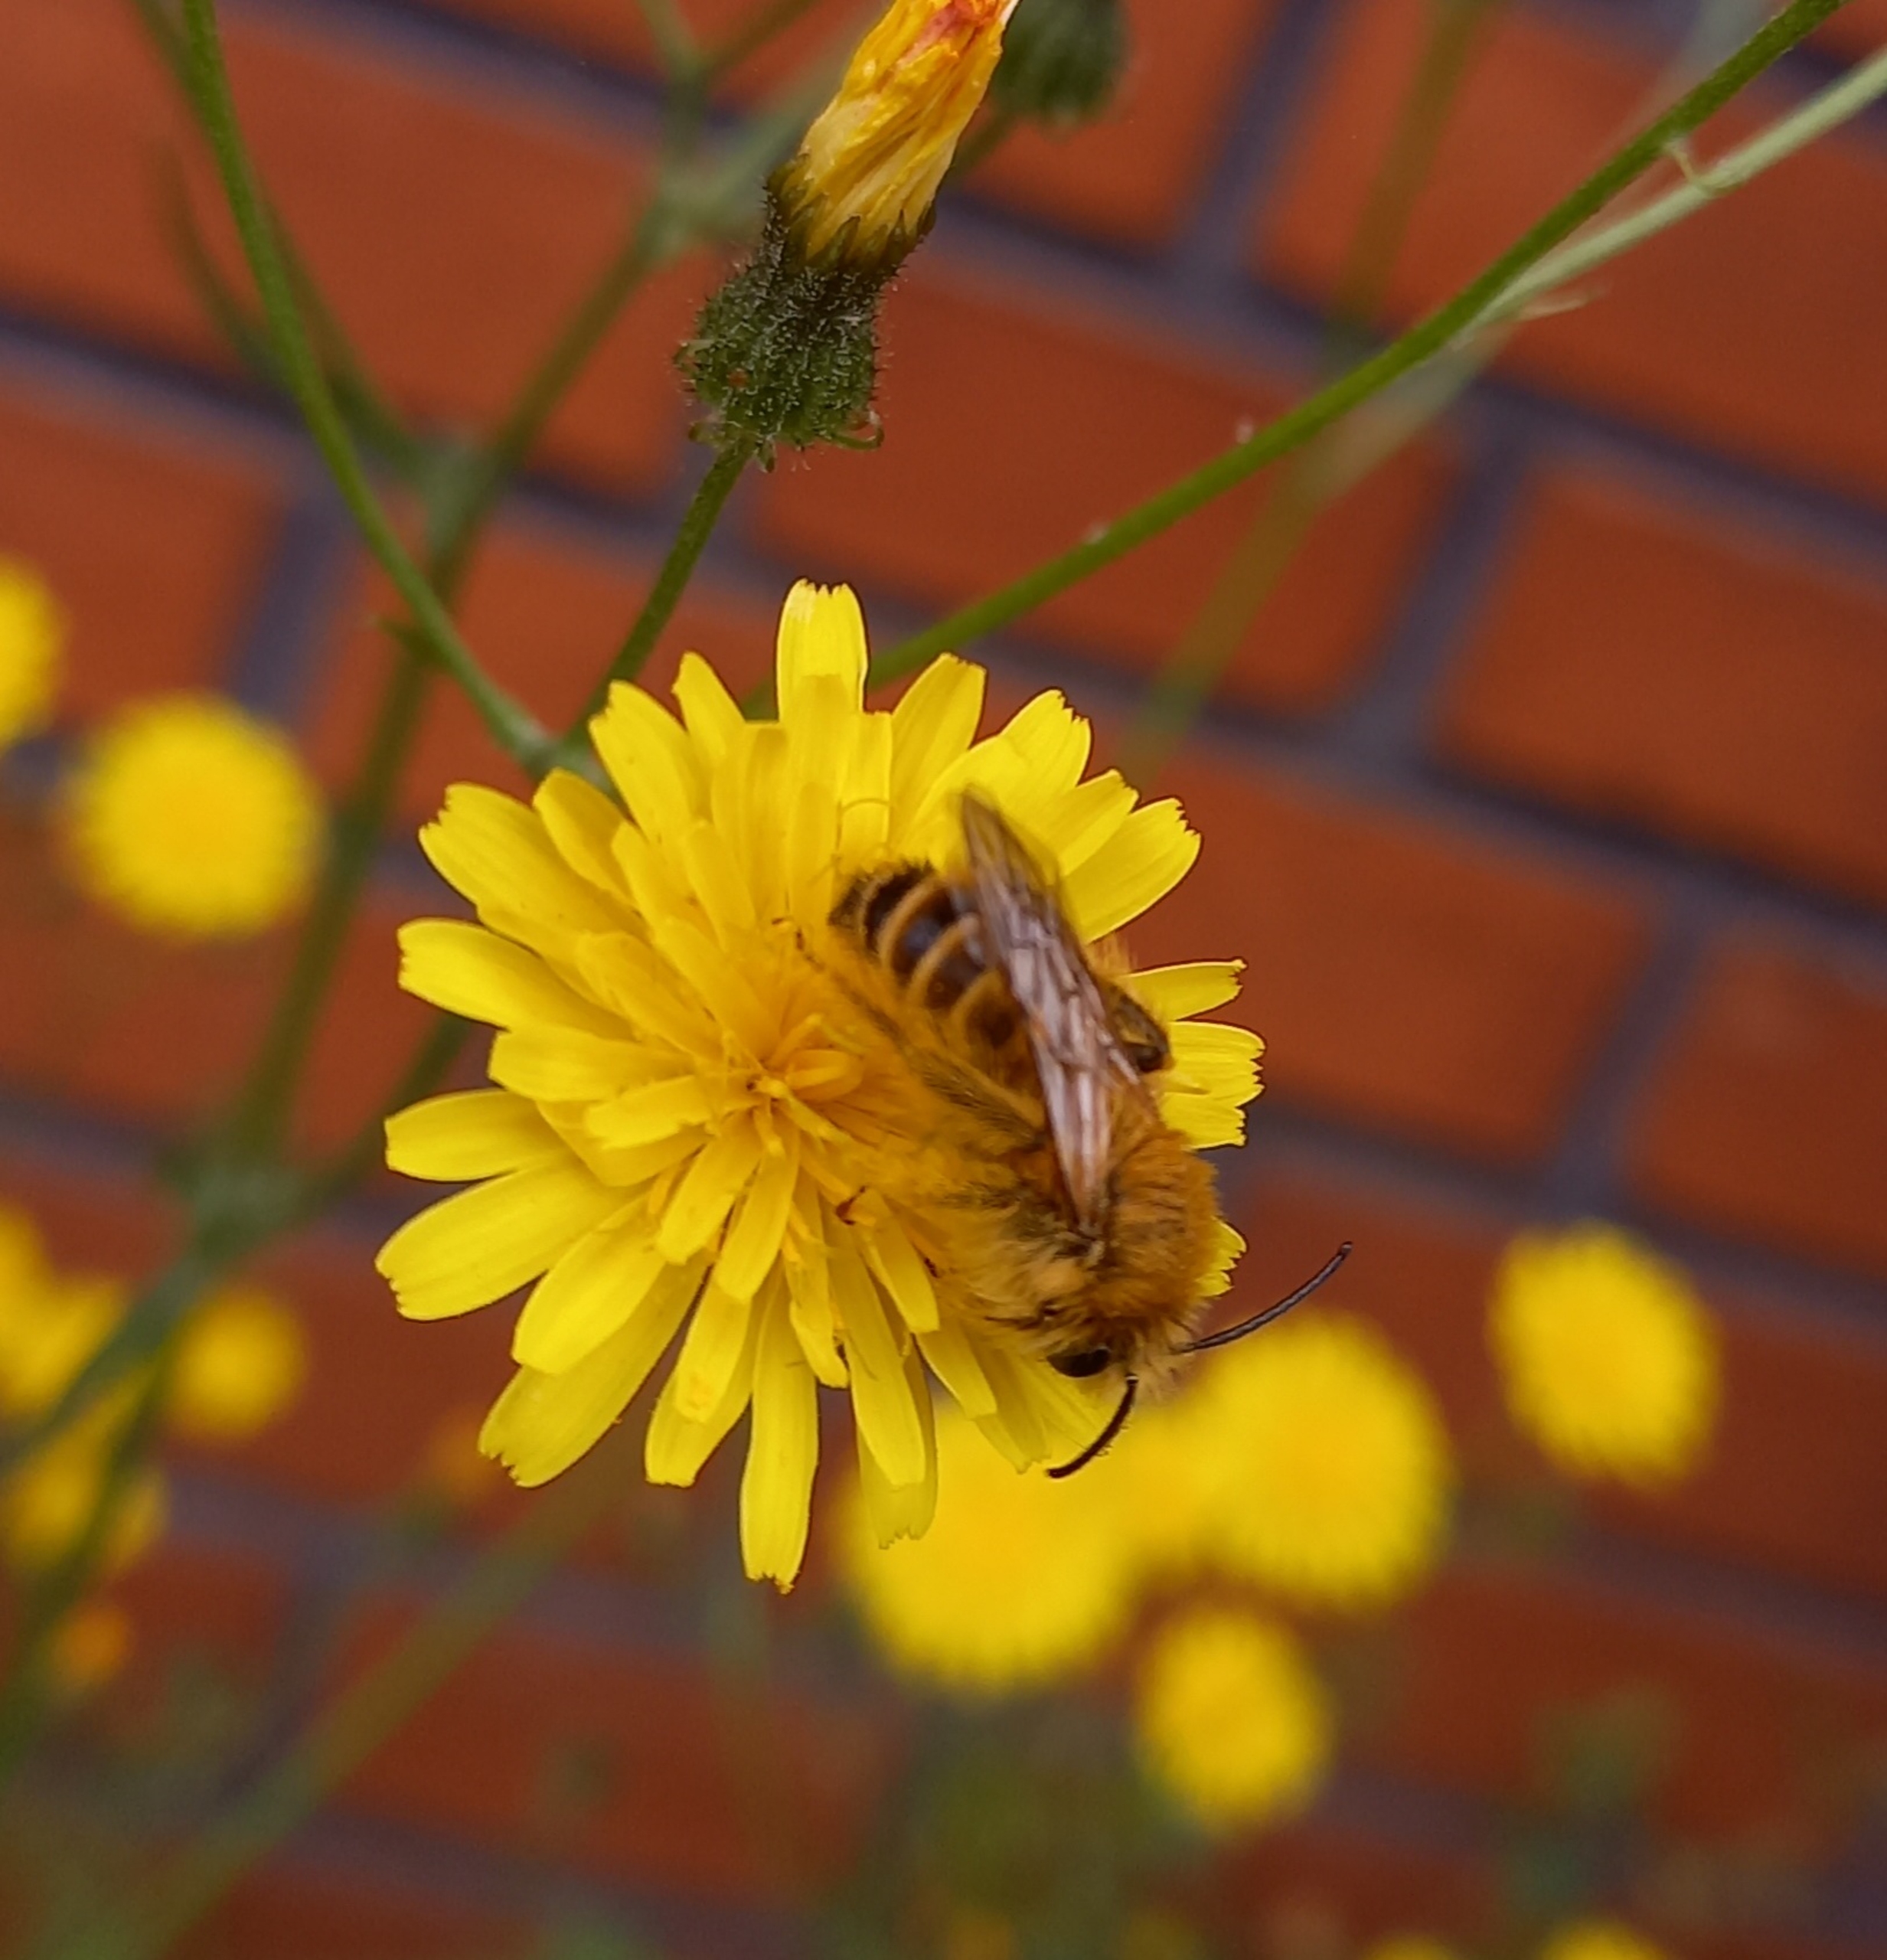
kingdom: Animalia
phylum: Arthropoda
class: Insecta
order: Hymenoptera
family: Melittidae
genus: Dasypoda
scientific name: Dasypoda hirtipes
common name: Pragtbuksebi
